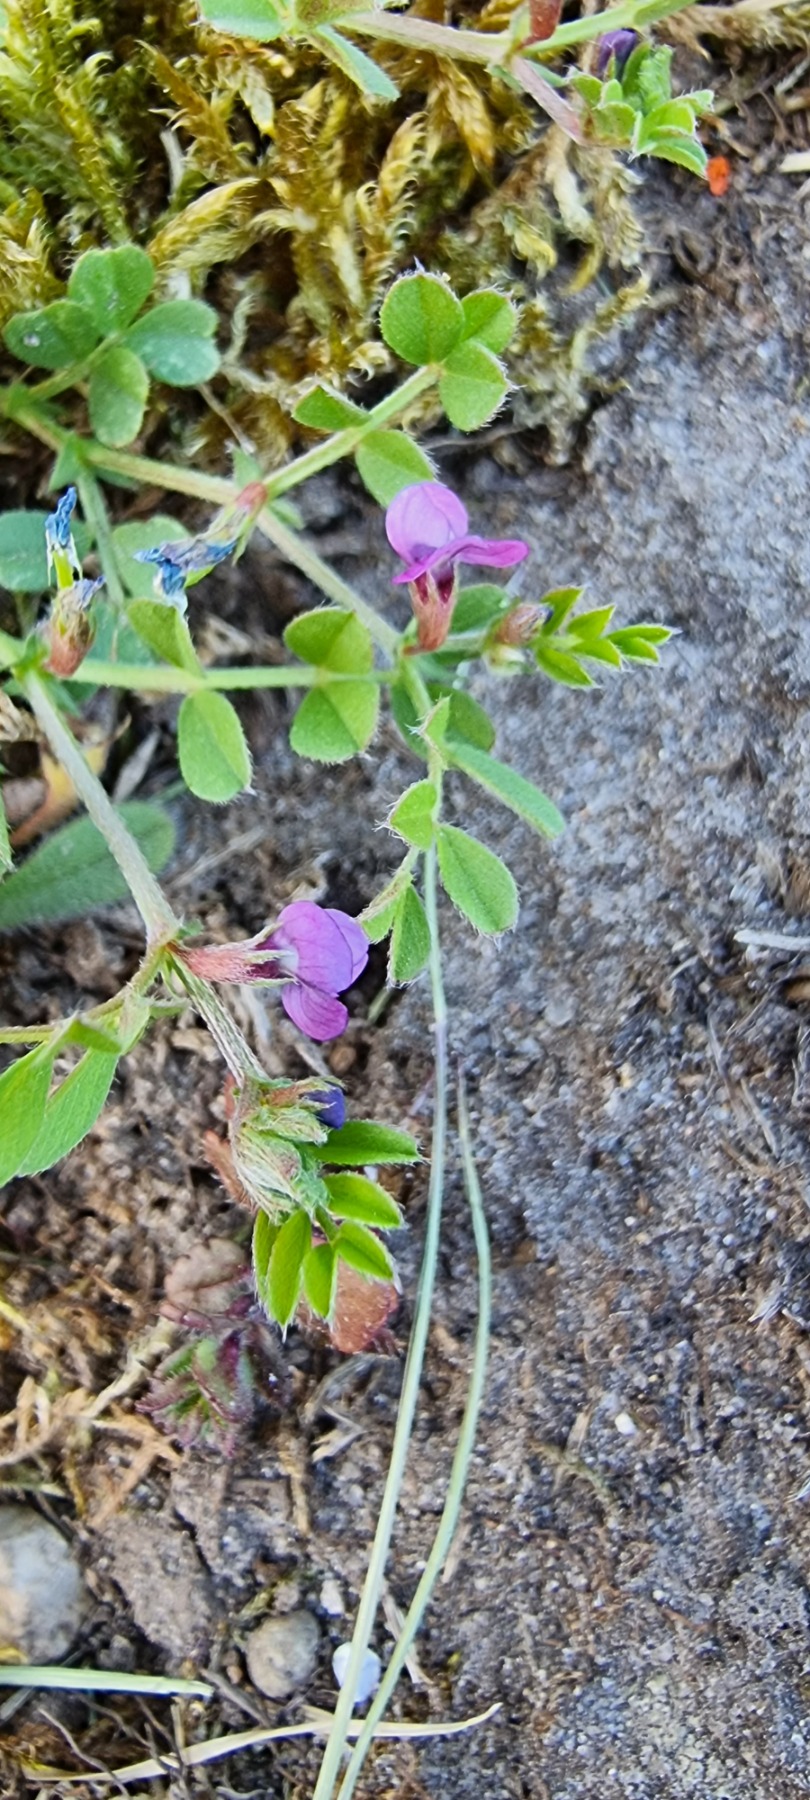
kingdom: Plantae
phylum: Tracheophyta
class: Magnoliopsida
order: Fabales
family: Fabaceae
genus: Vicia
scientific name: Vicia lathyroides
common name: Vår-vikke
